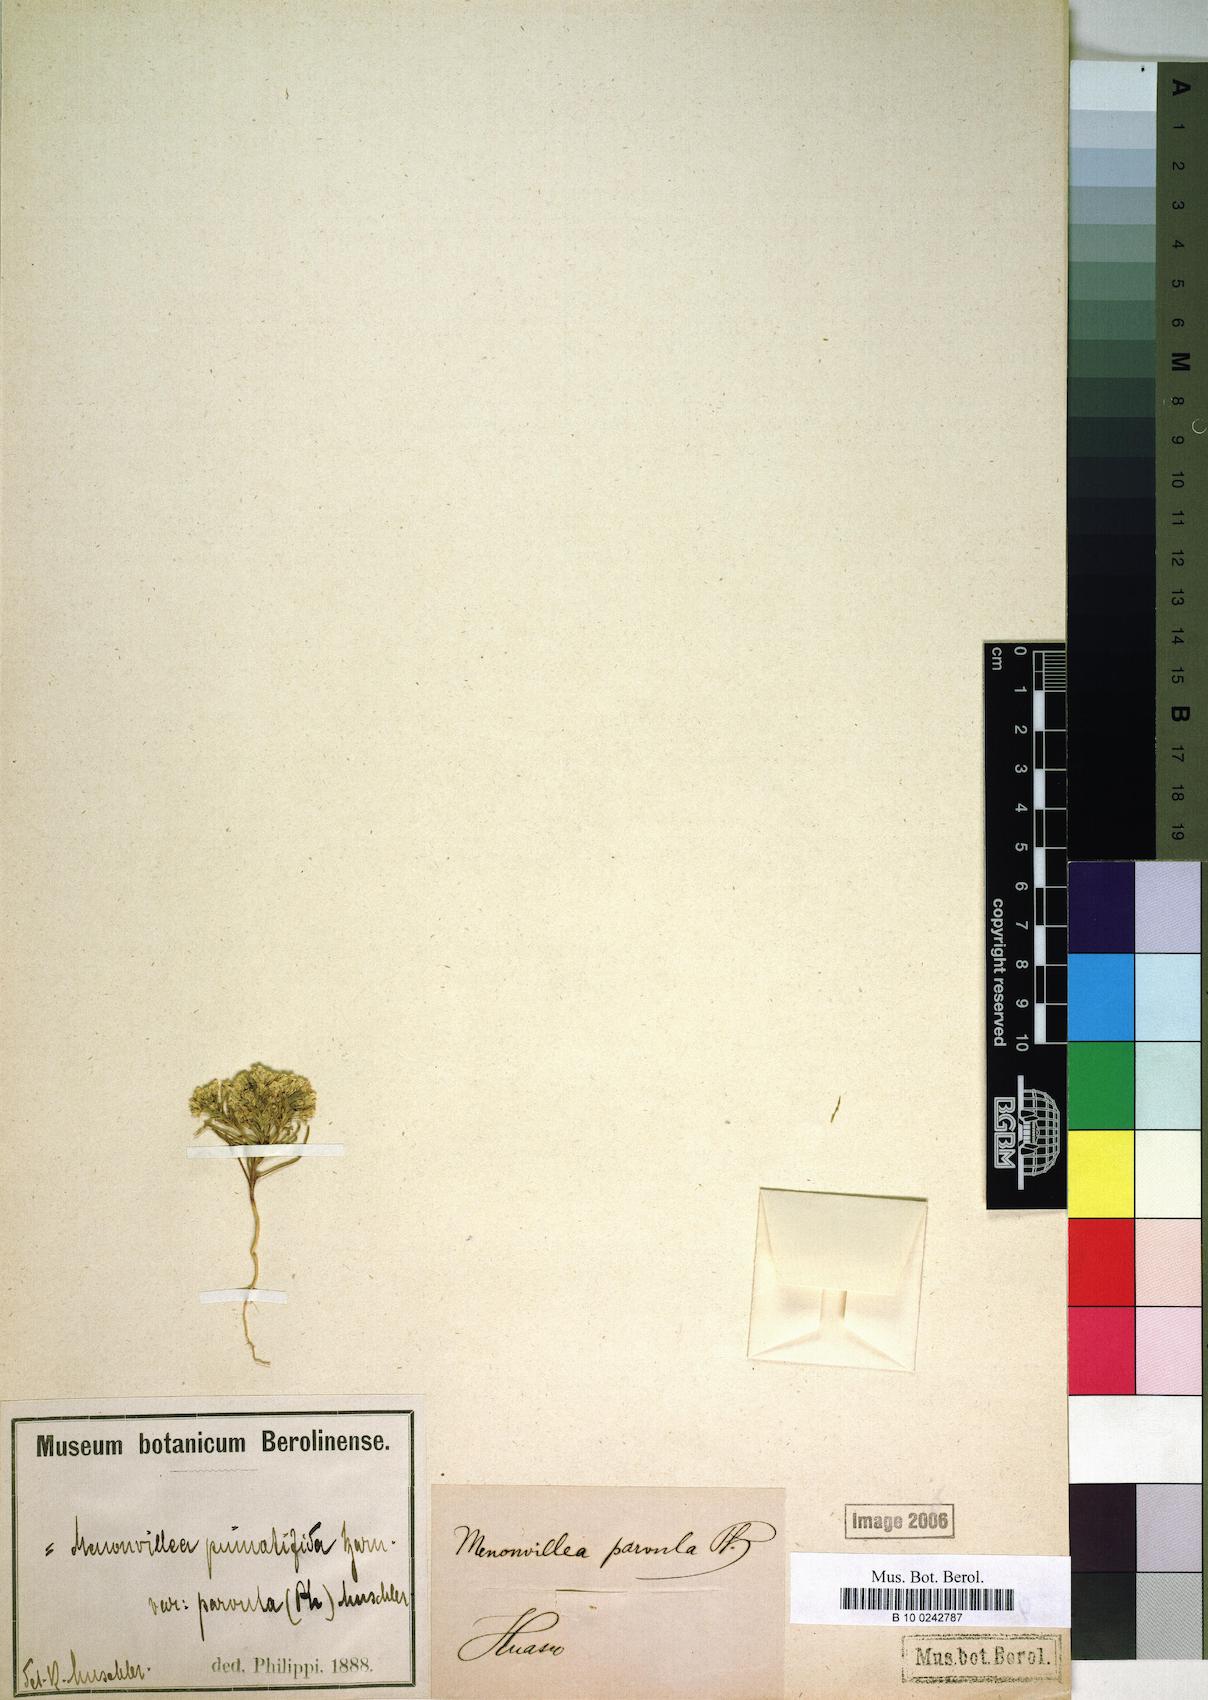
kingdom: Plantae
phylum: Tracheophyta
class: Magnoliopsida
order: Brassicales
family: Brassicaceae
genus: Menonvillea
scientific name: Menonvillea chilensis
